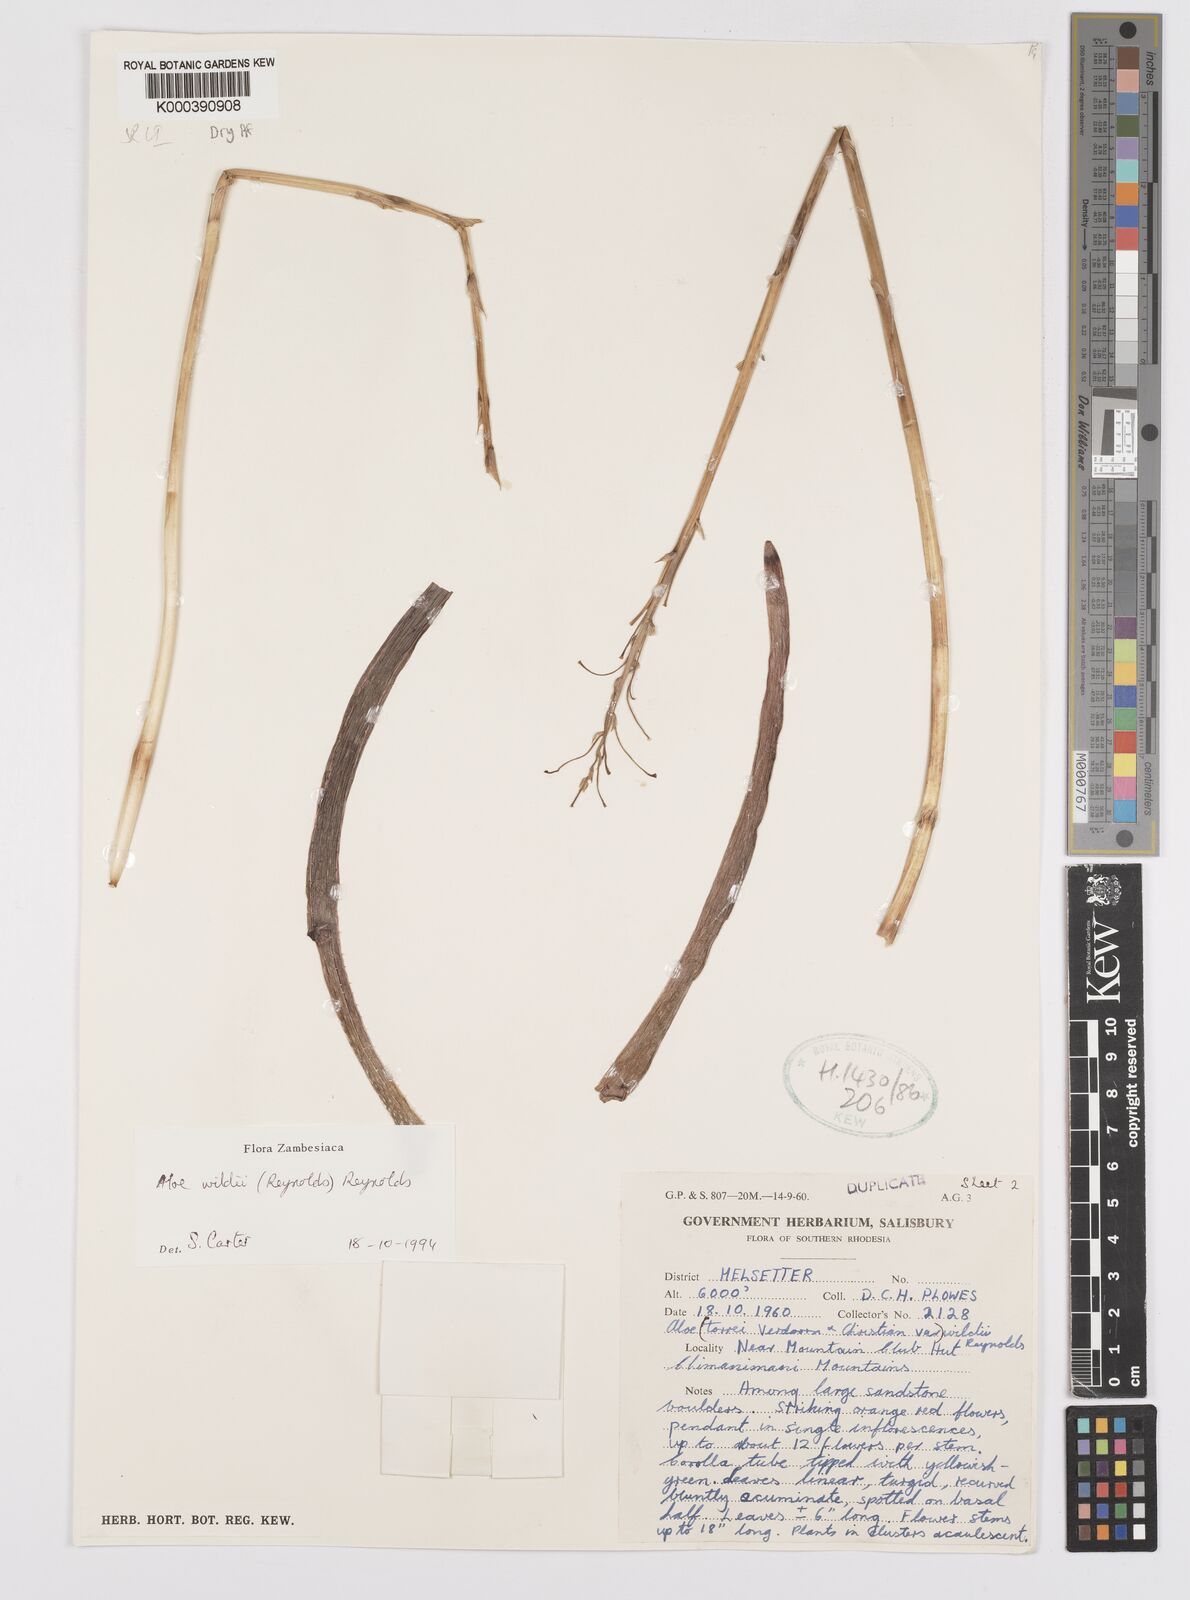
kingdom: Plantae
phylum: Tracheophyta
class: Liliopsida
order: Asparagales
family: Asphodelaceae
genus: Aloe
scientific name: Aloe wildii
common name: Wild's small chimanimani aloe
